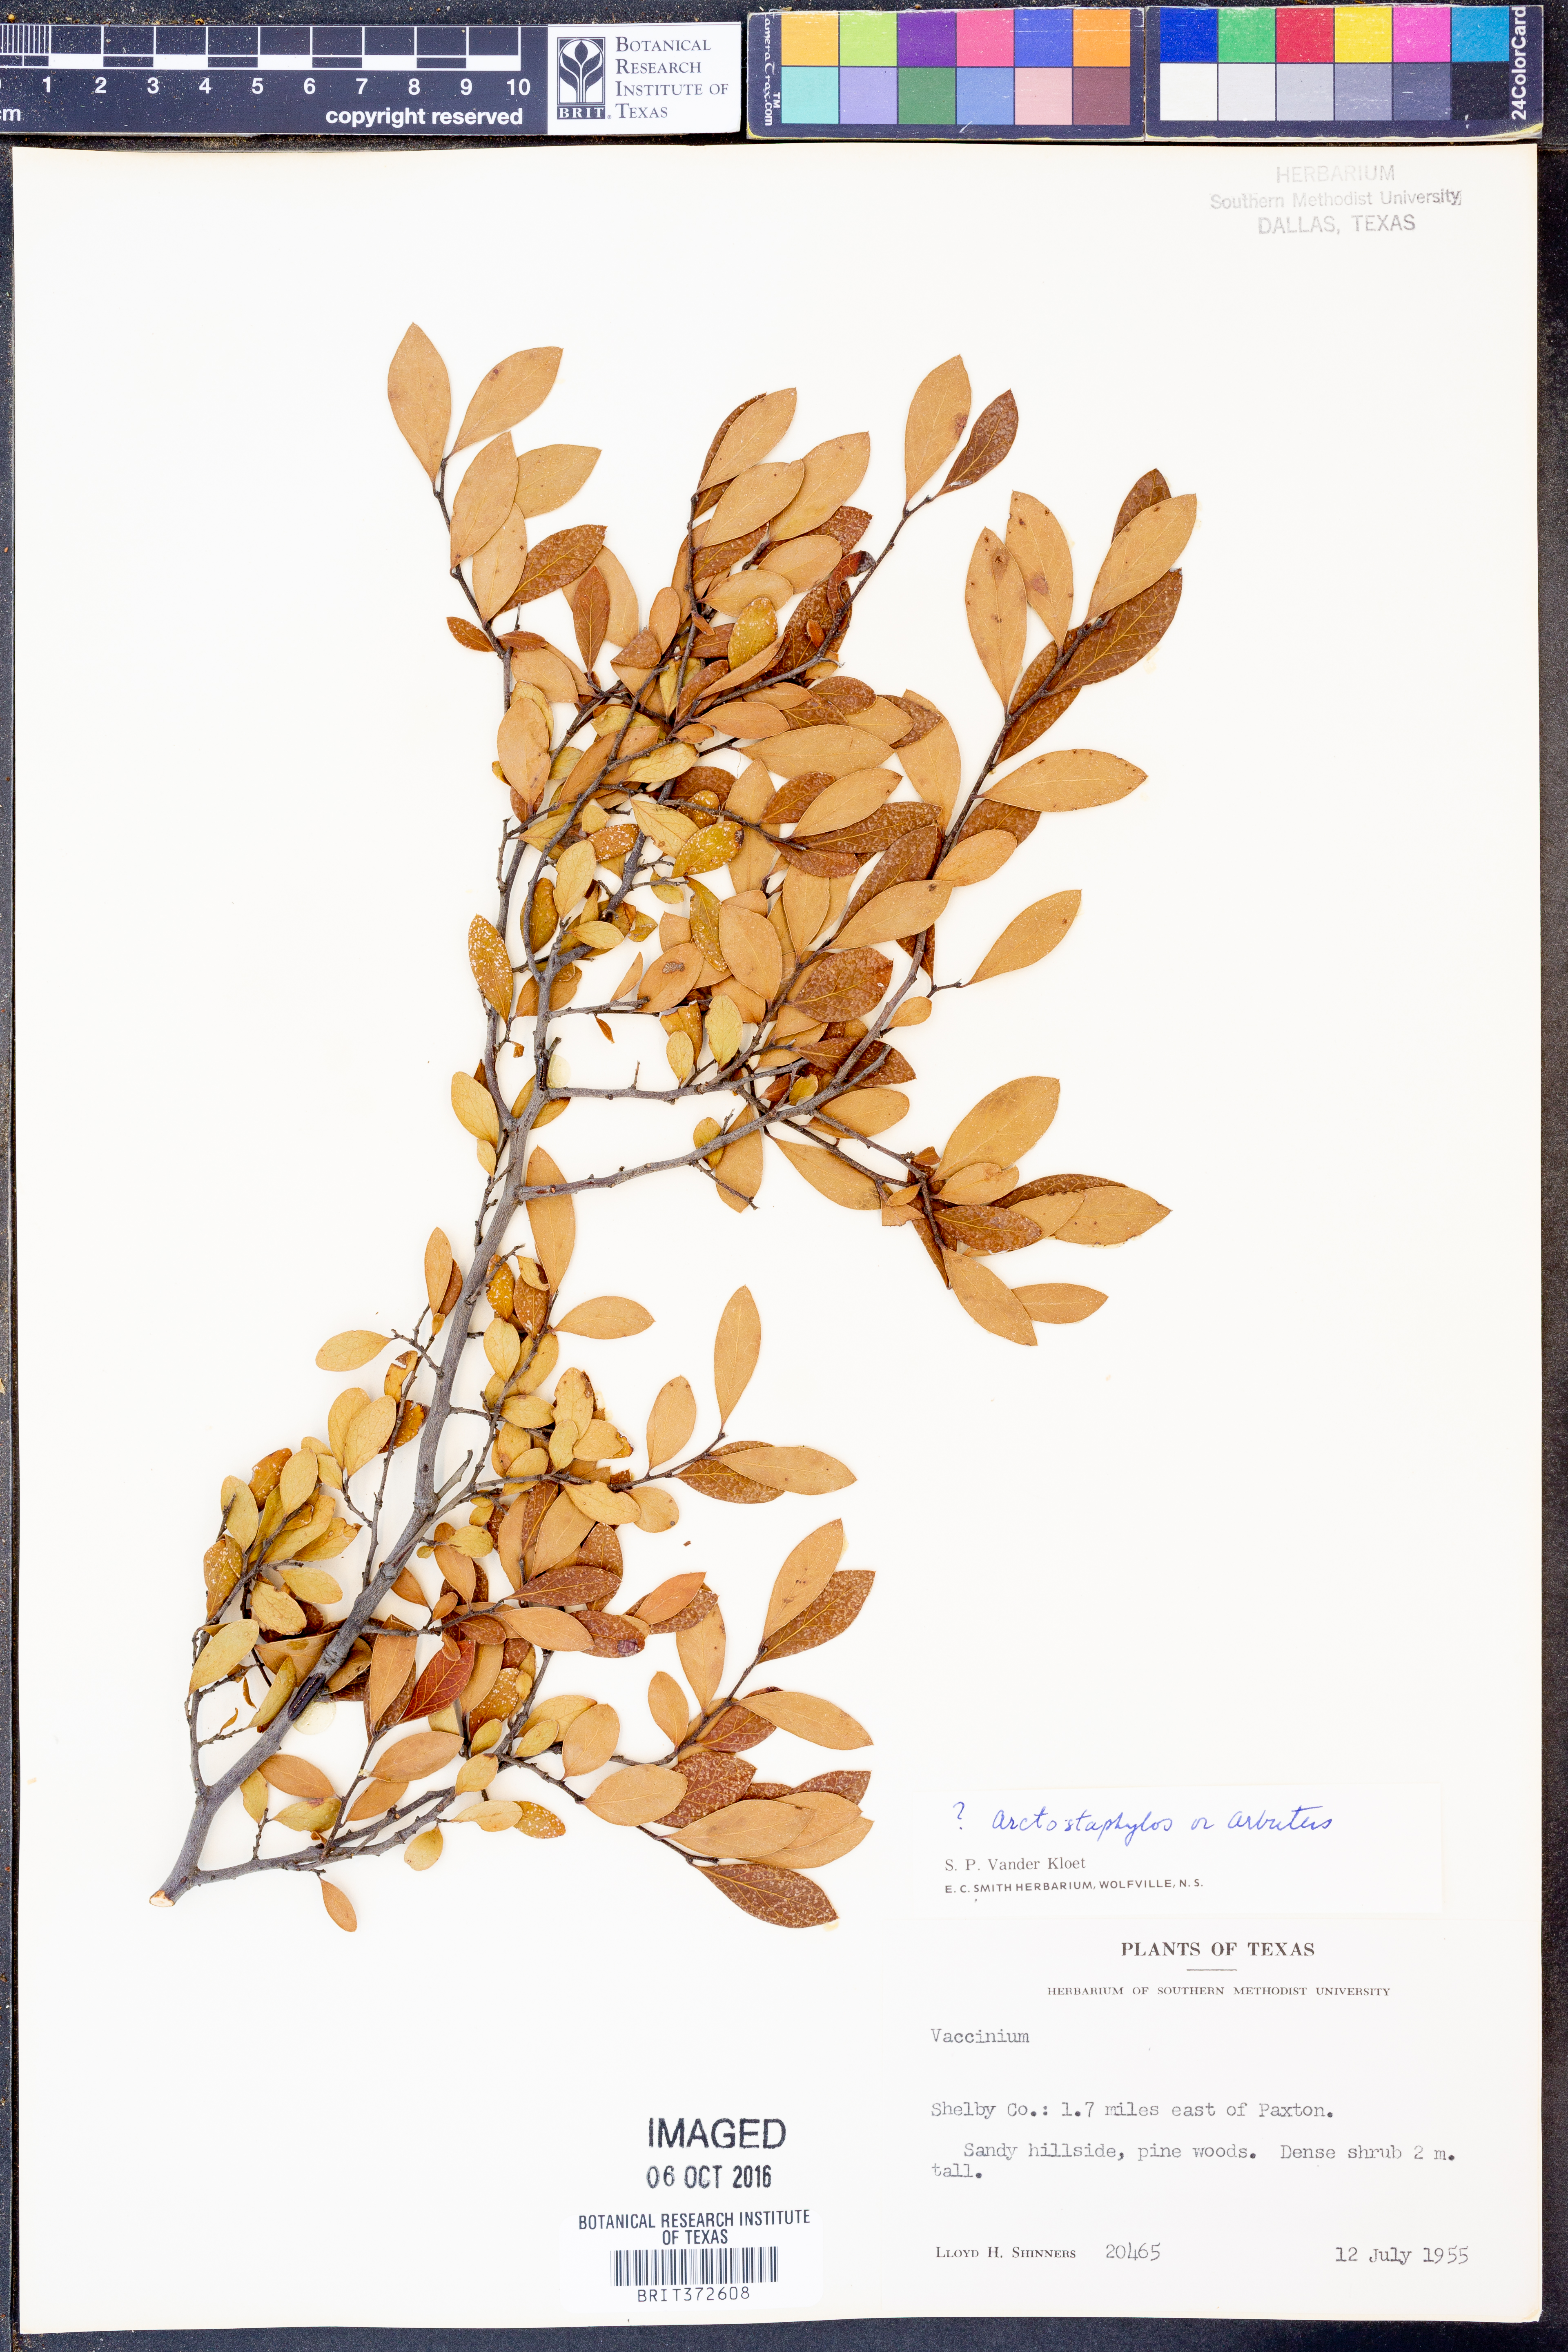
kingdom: Plantae
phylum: Tracheophyta
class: Magnoliopsida
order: Ericales
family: Ericaceae
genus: Arctostaphylos
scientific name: Arctostaphylos
